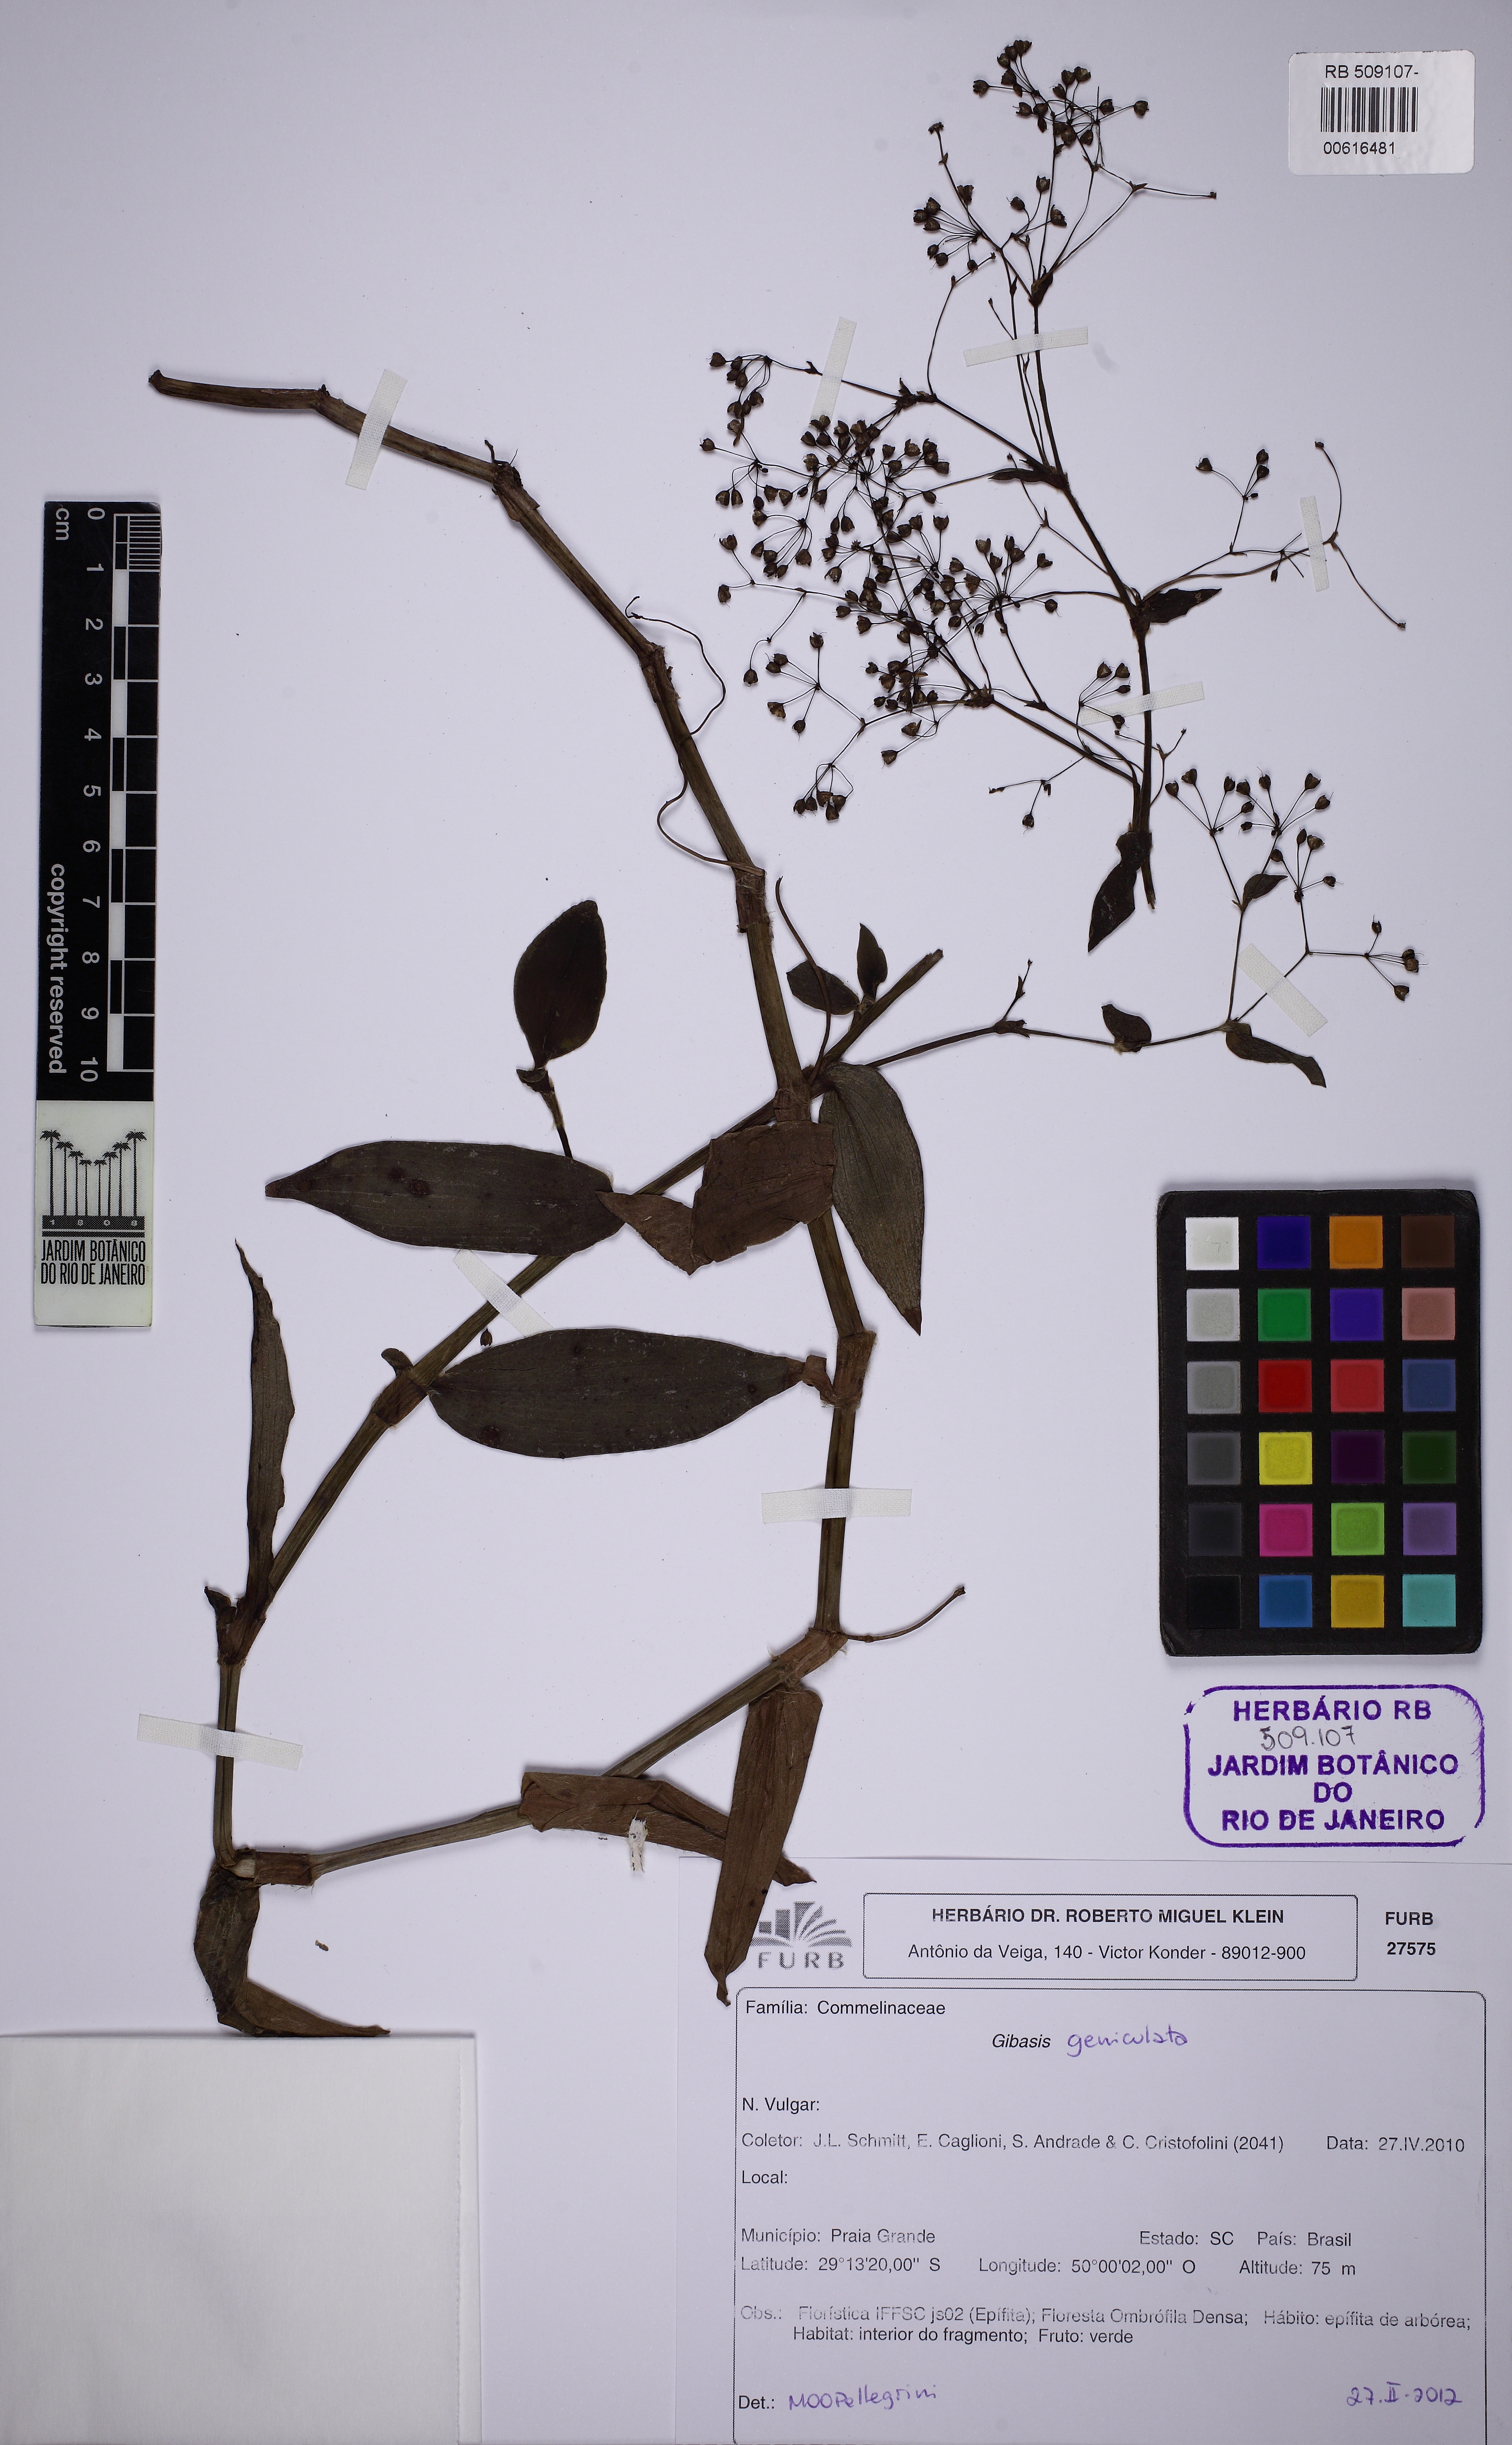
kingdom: Plantae
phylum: Tracheophyta
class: Liliopsida
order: Commelinales
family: Commelinaceae
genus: Gibasis
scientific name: Gibasis geniculata
